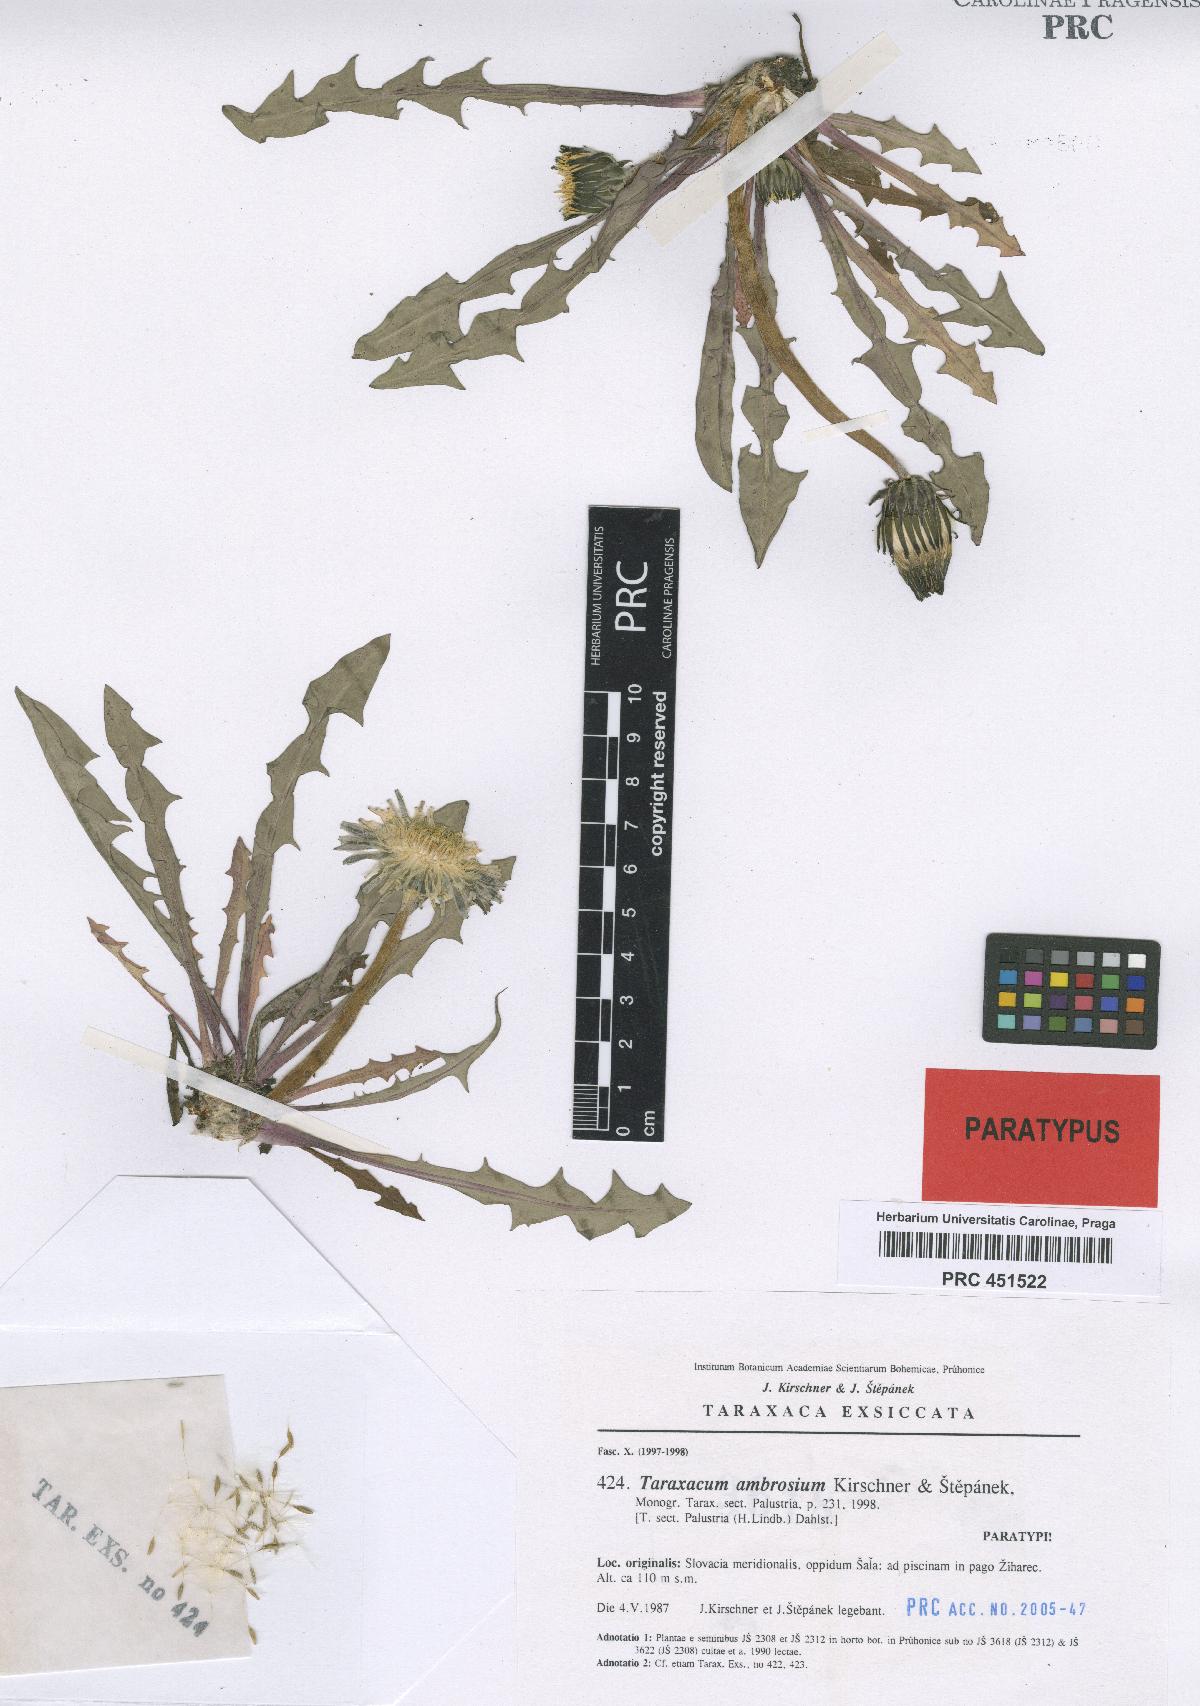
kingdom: Plantae
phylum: Tracheophyta
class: Magnoliopsida
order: Asterales
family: Asteraceae
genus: Taraxacum
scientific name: Taraxacum ambrosium
